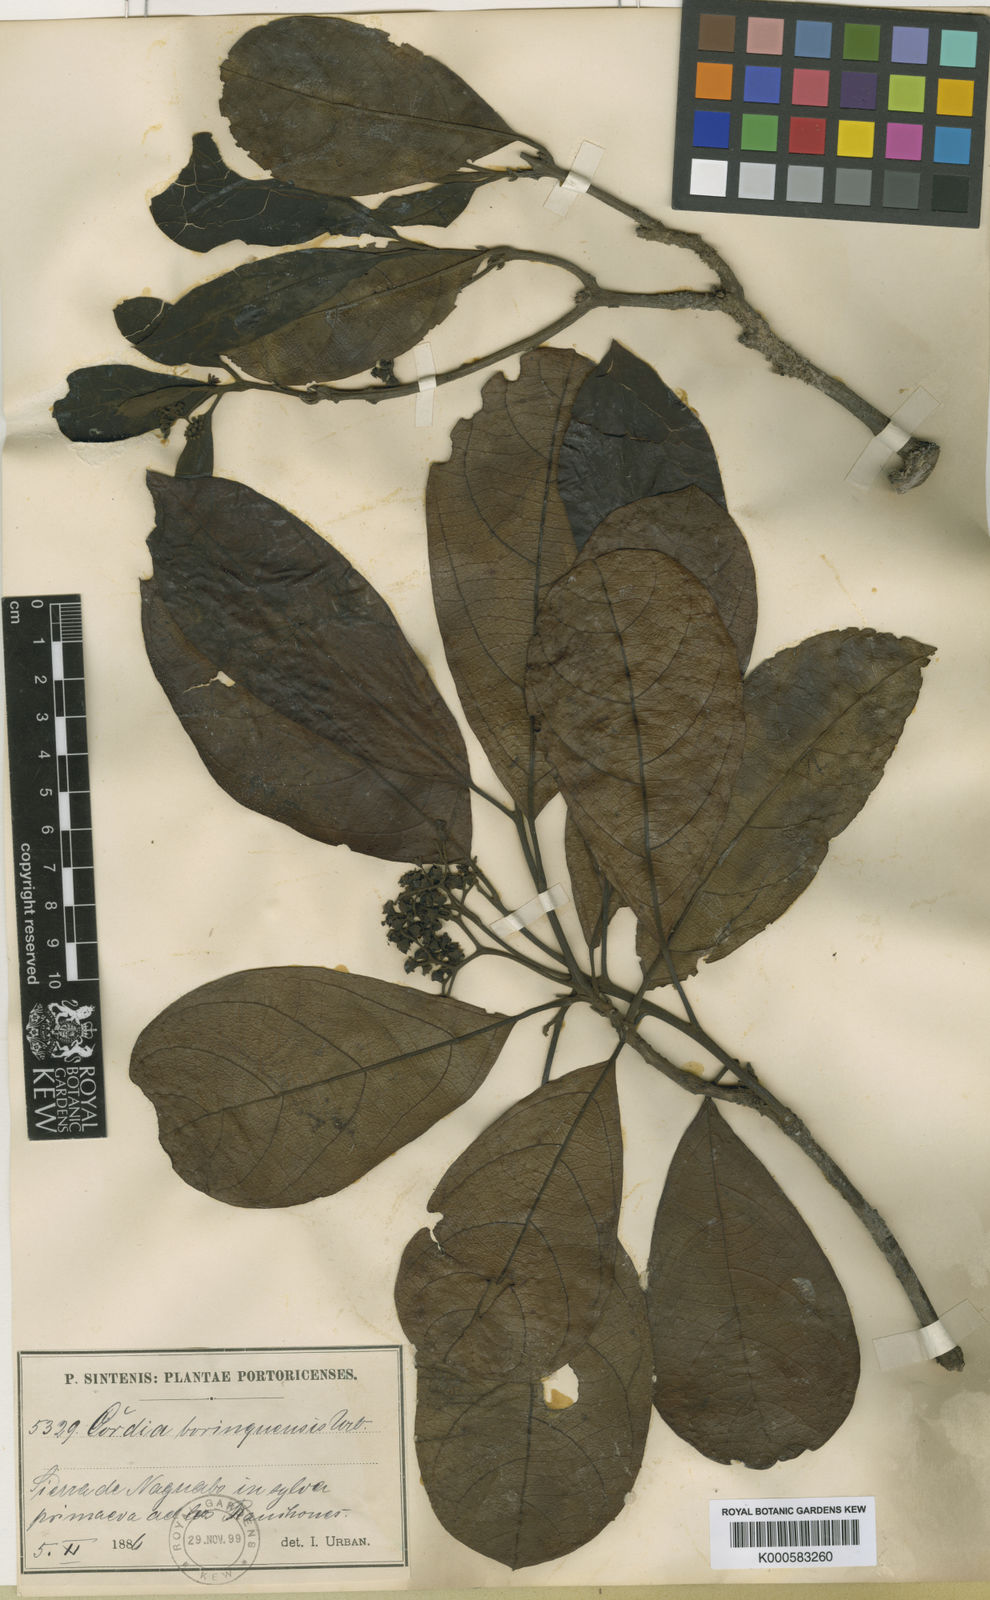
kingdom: Plantae
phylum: Tracheophyta
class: Magnoliopsida
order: Boraginales
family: Cordiaceae
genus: Cordia
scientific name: Cordia borinquensis
